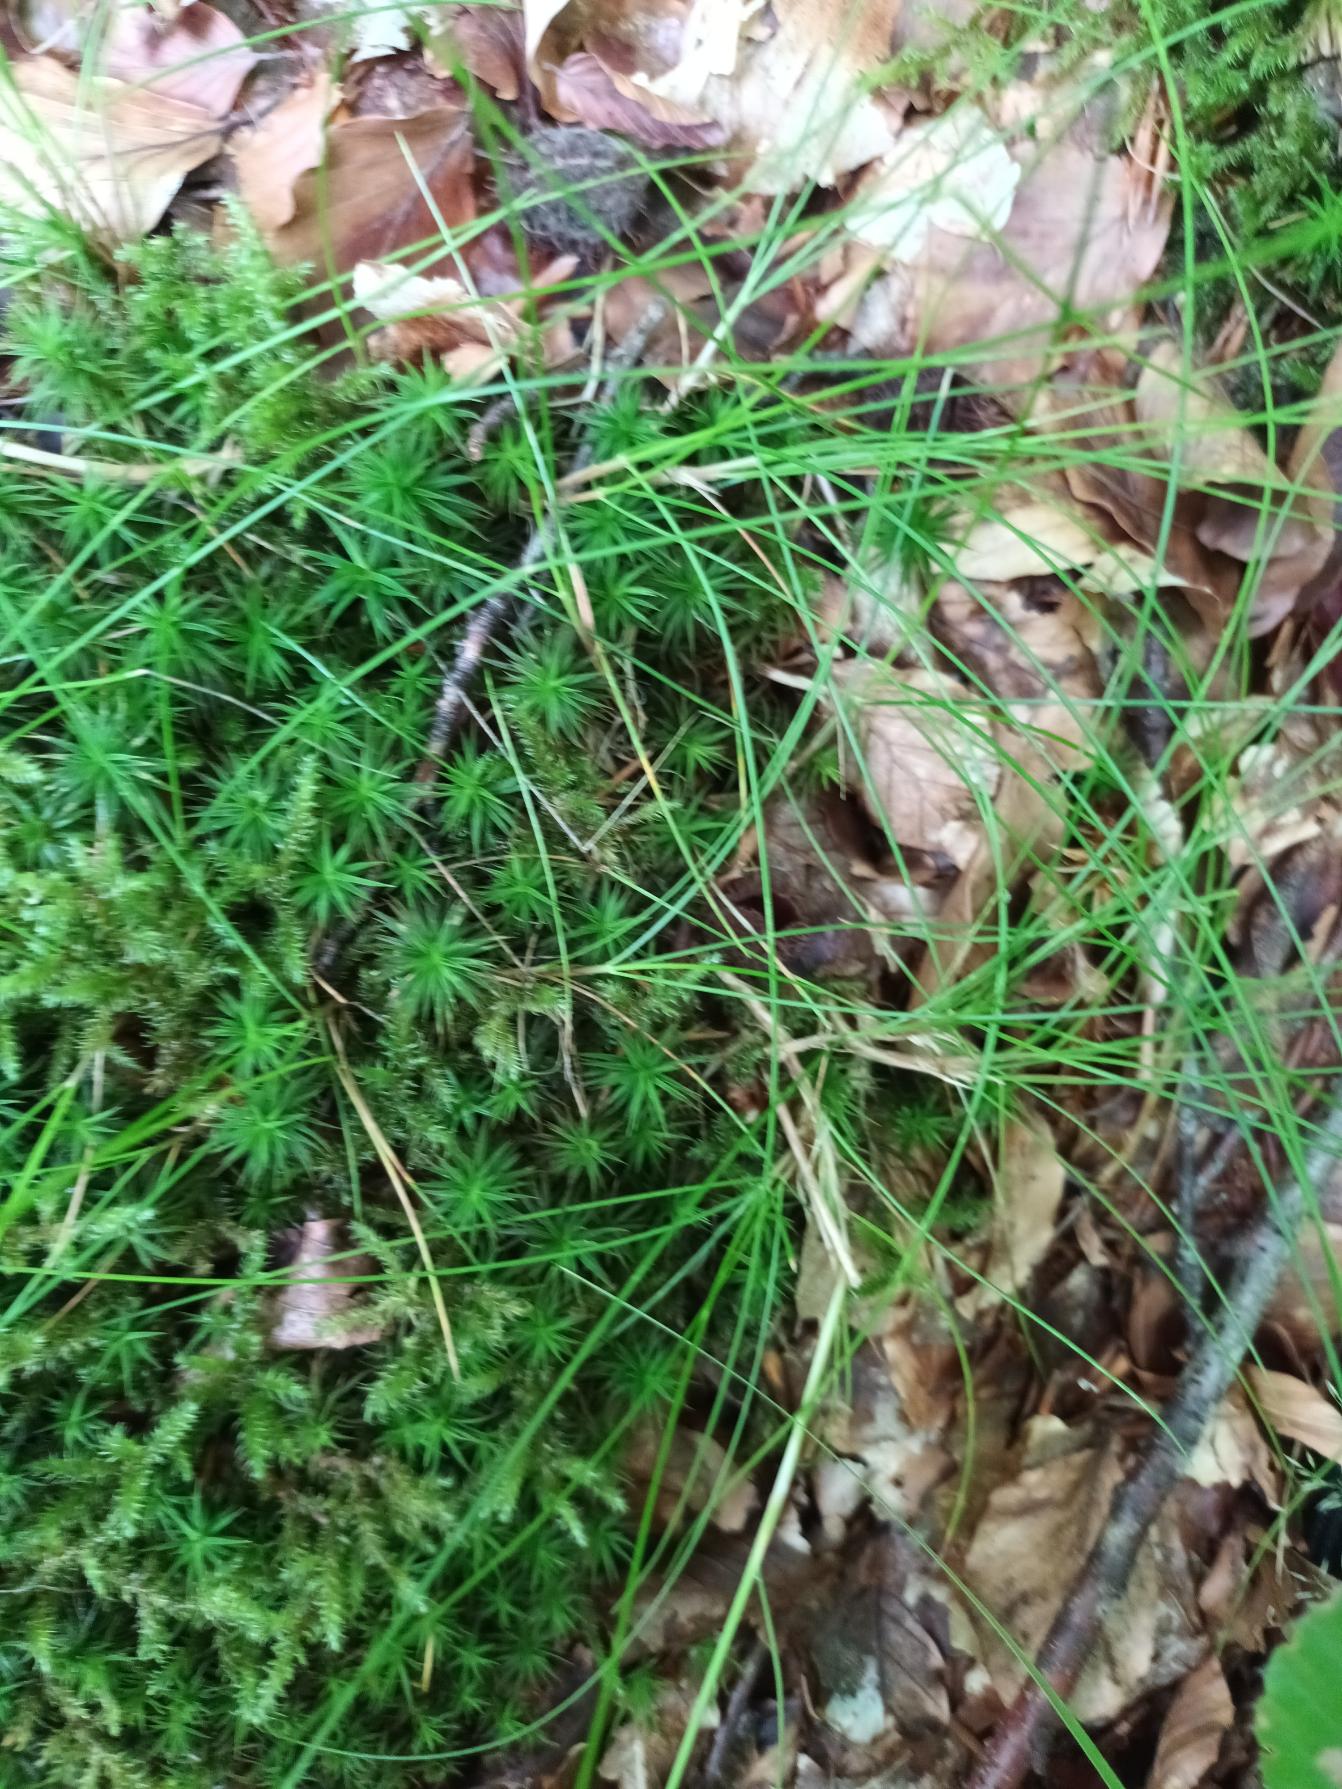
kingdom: Plantae
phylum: Tracheophyta
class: Liliopsida
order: Poales
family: Poaceae
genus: Avenella
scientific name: Avenella flexuosa
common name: Bølget bunke
